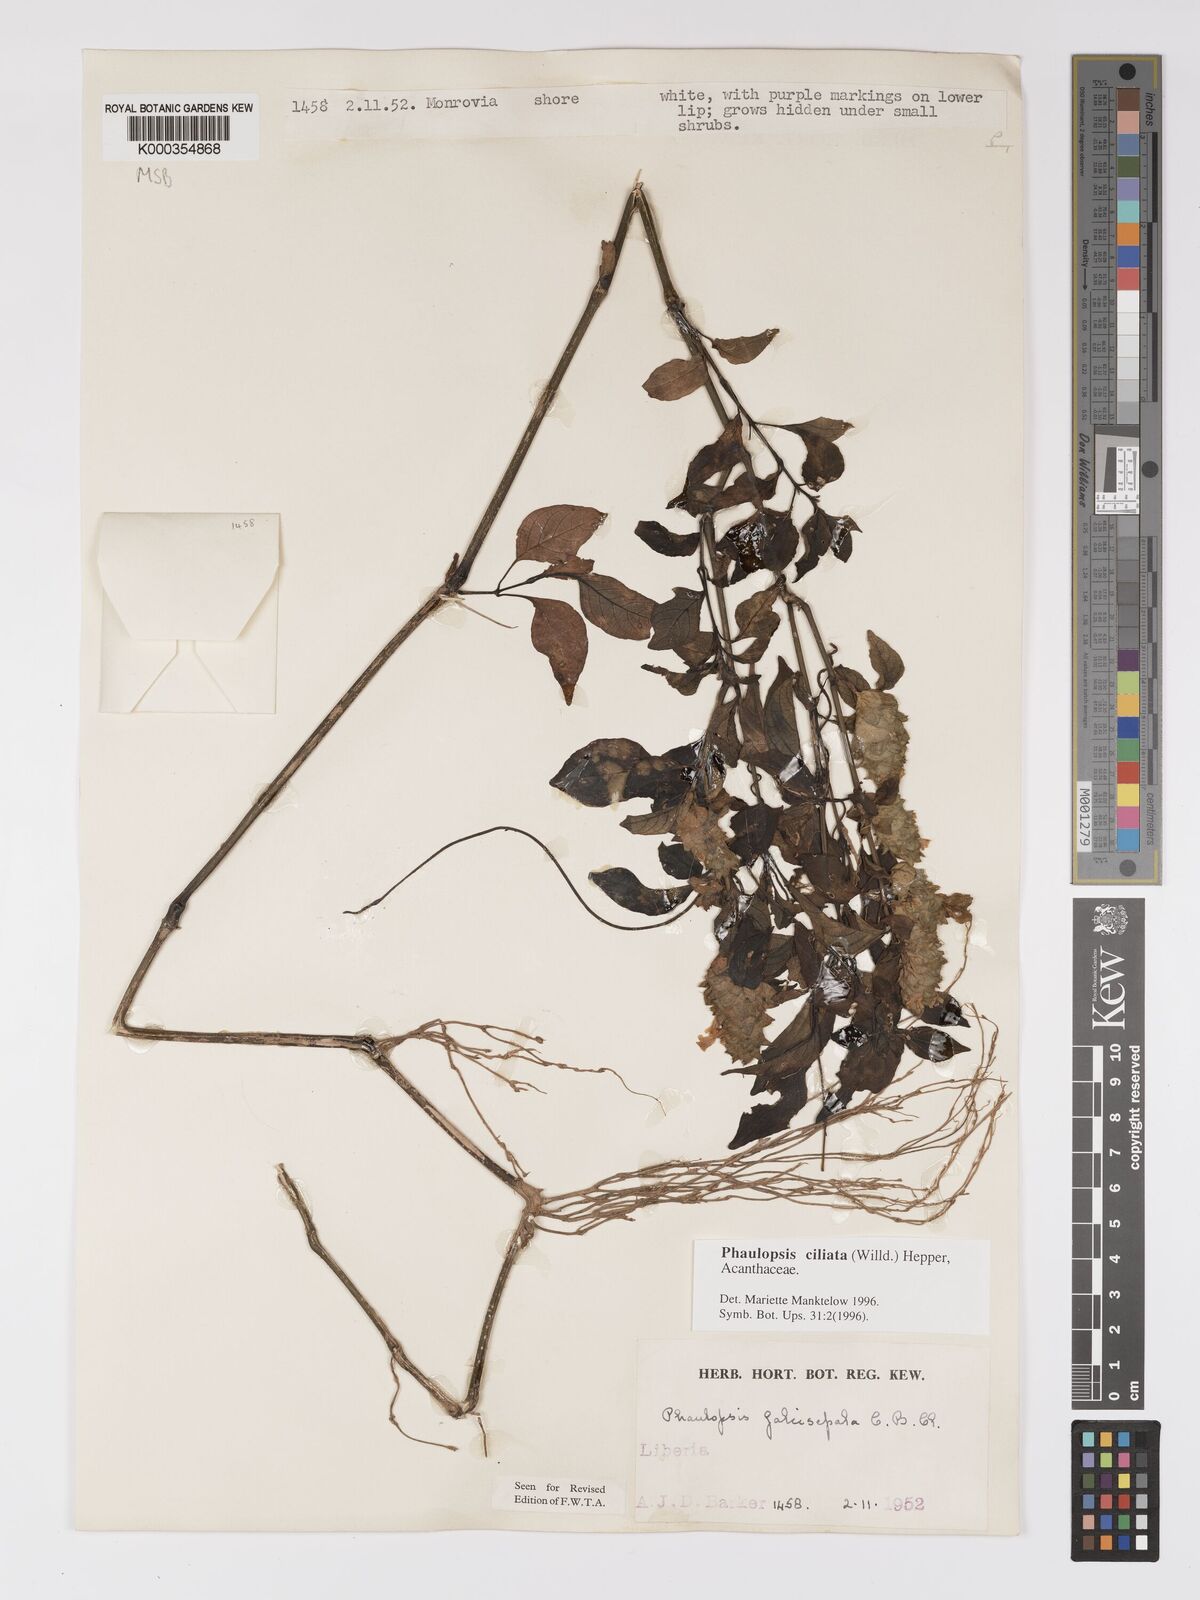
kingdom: Plantae
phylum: Tracheophyta
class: Magnoliopsida
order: Lamiales
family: Acanthaceae
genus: Phaulopsis
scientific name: Phaulopsis ciliata
